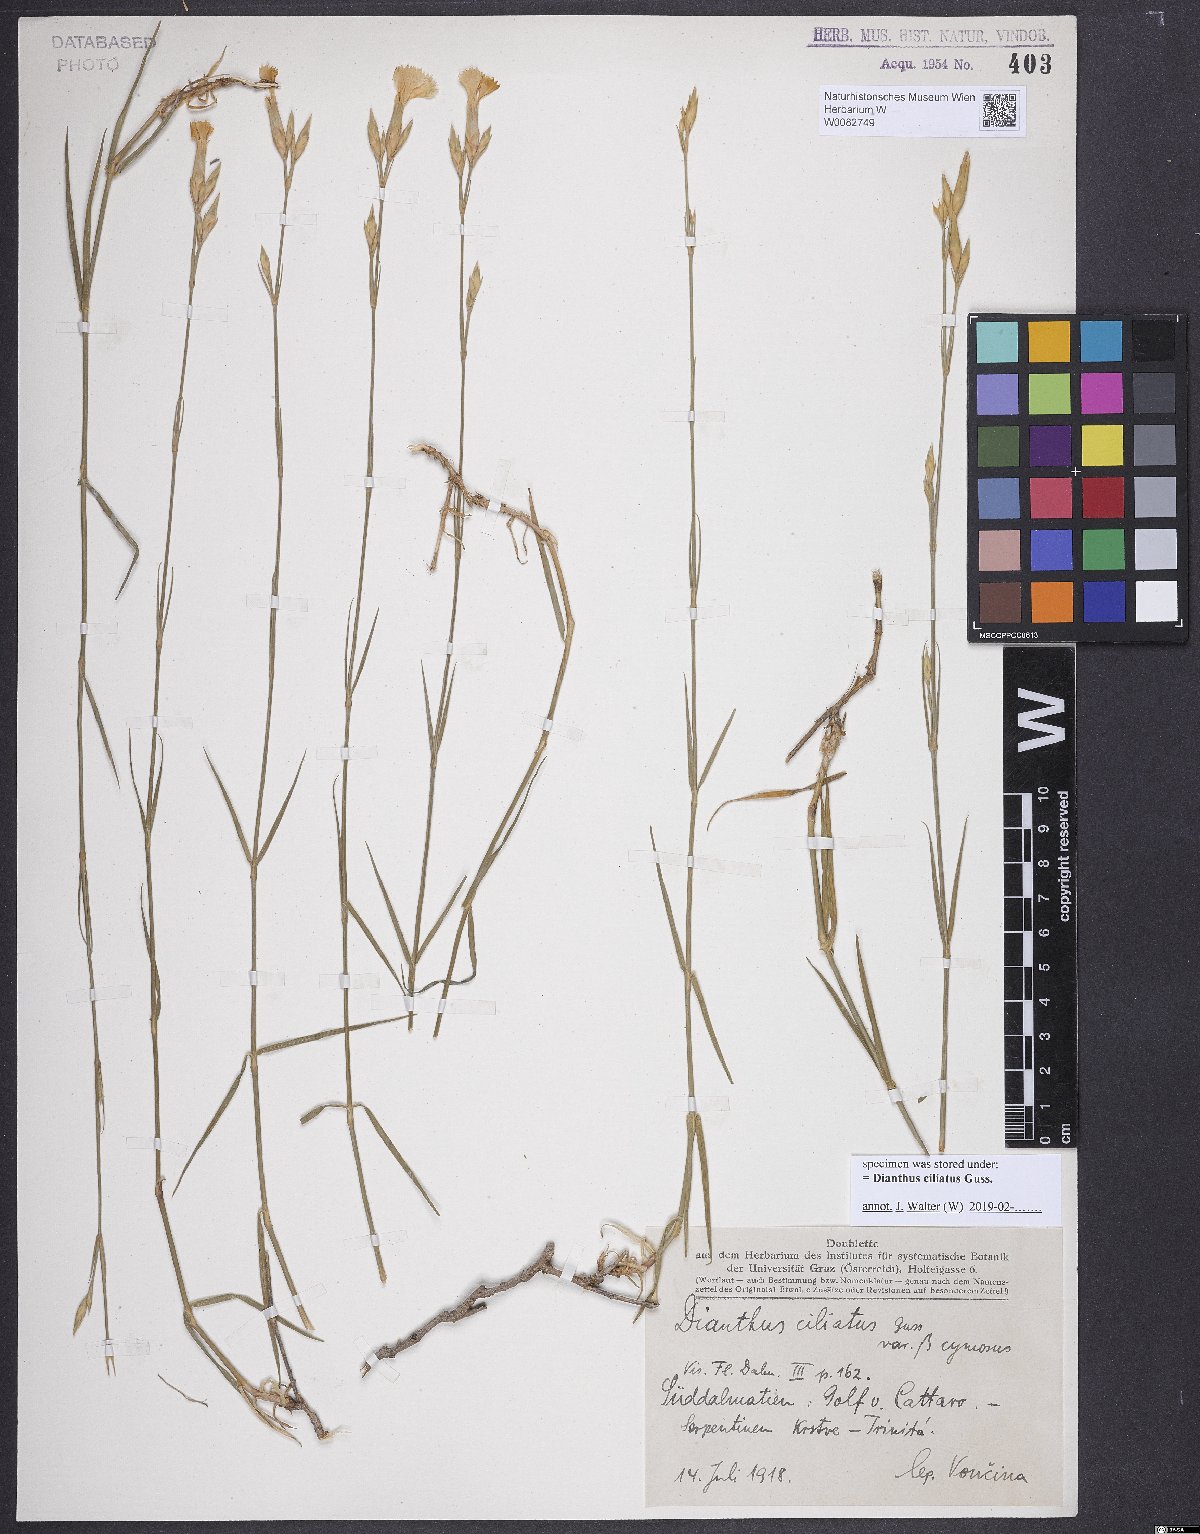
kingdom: Plantae
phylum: Tracheophyta
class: Magnoliopsida
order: Caryophyllales
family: Caryophyllaceae
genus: Dianthus
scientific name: Dianthus ciliatus
